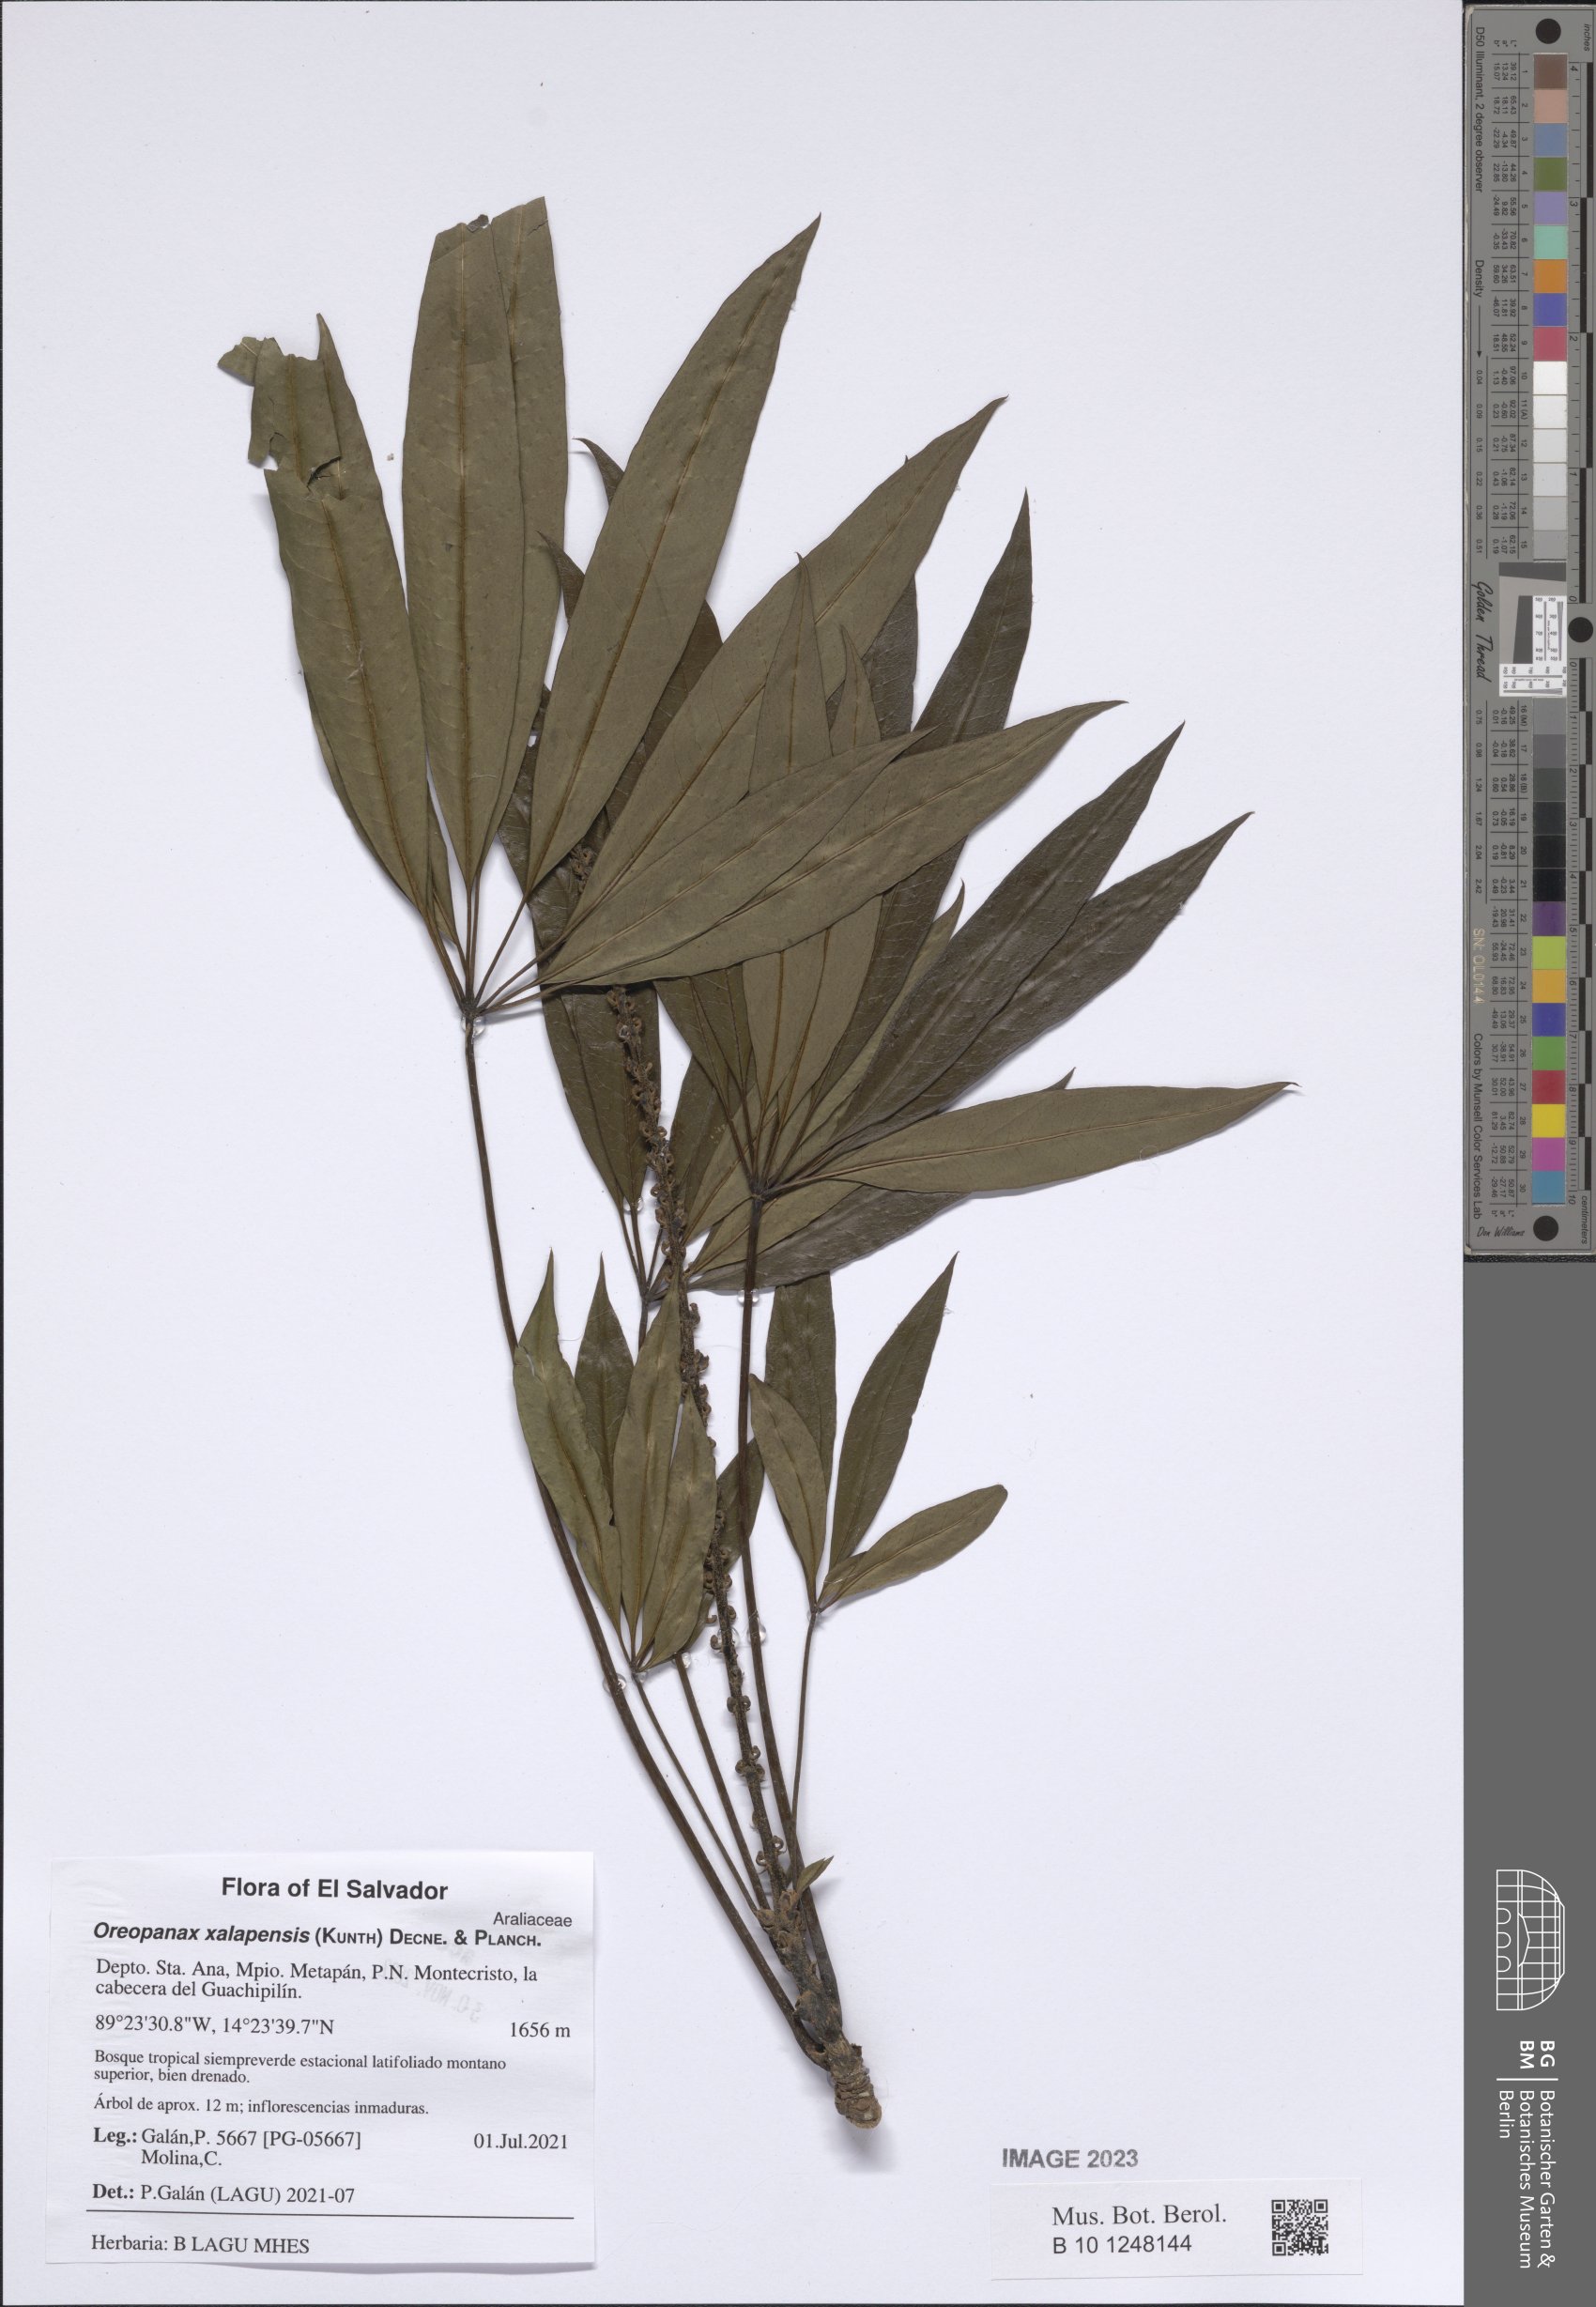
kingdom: Plantae
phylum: Tracheophyta
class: Magnoliopsida
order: Apiales
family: Araliaceae
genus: Oreopanax
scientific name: Oreopanax xalapensis
